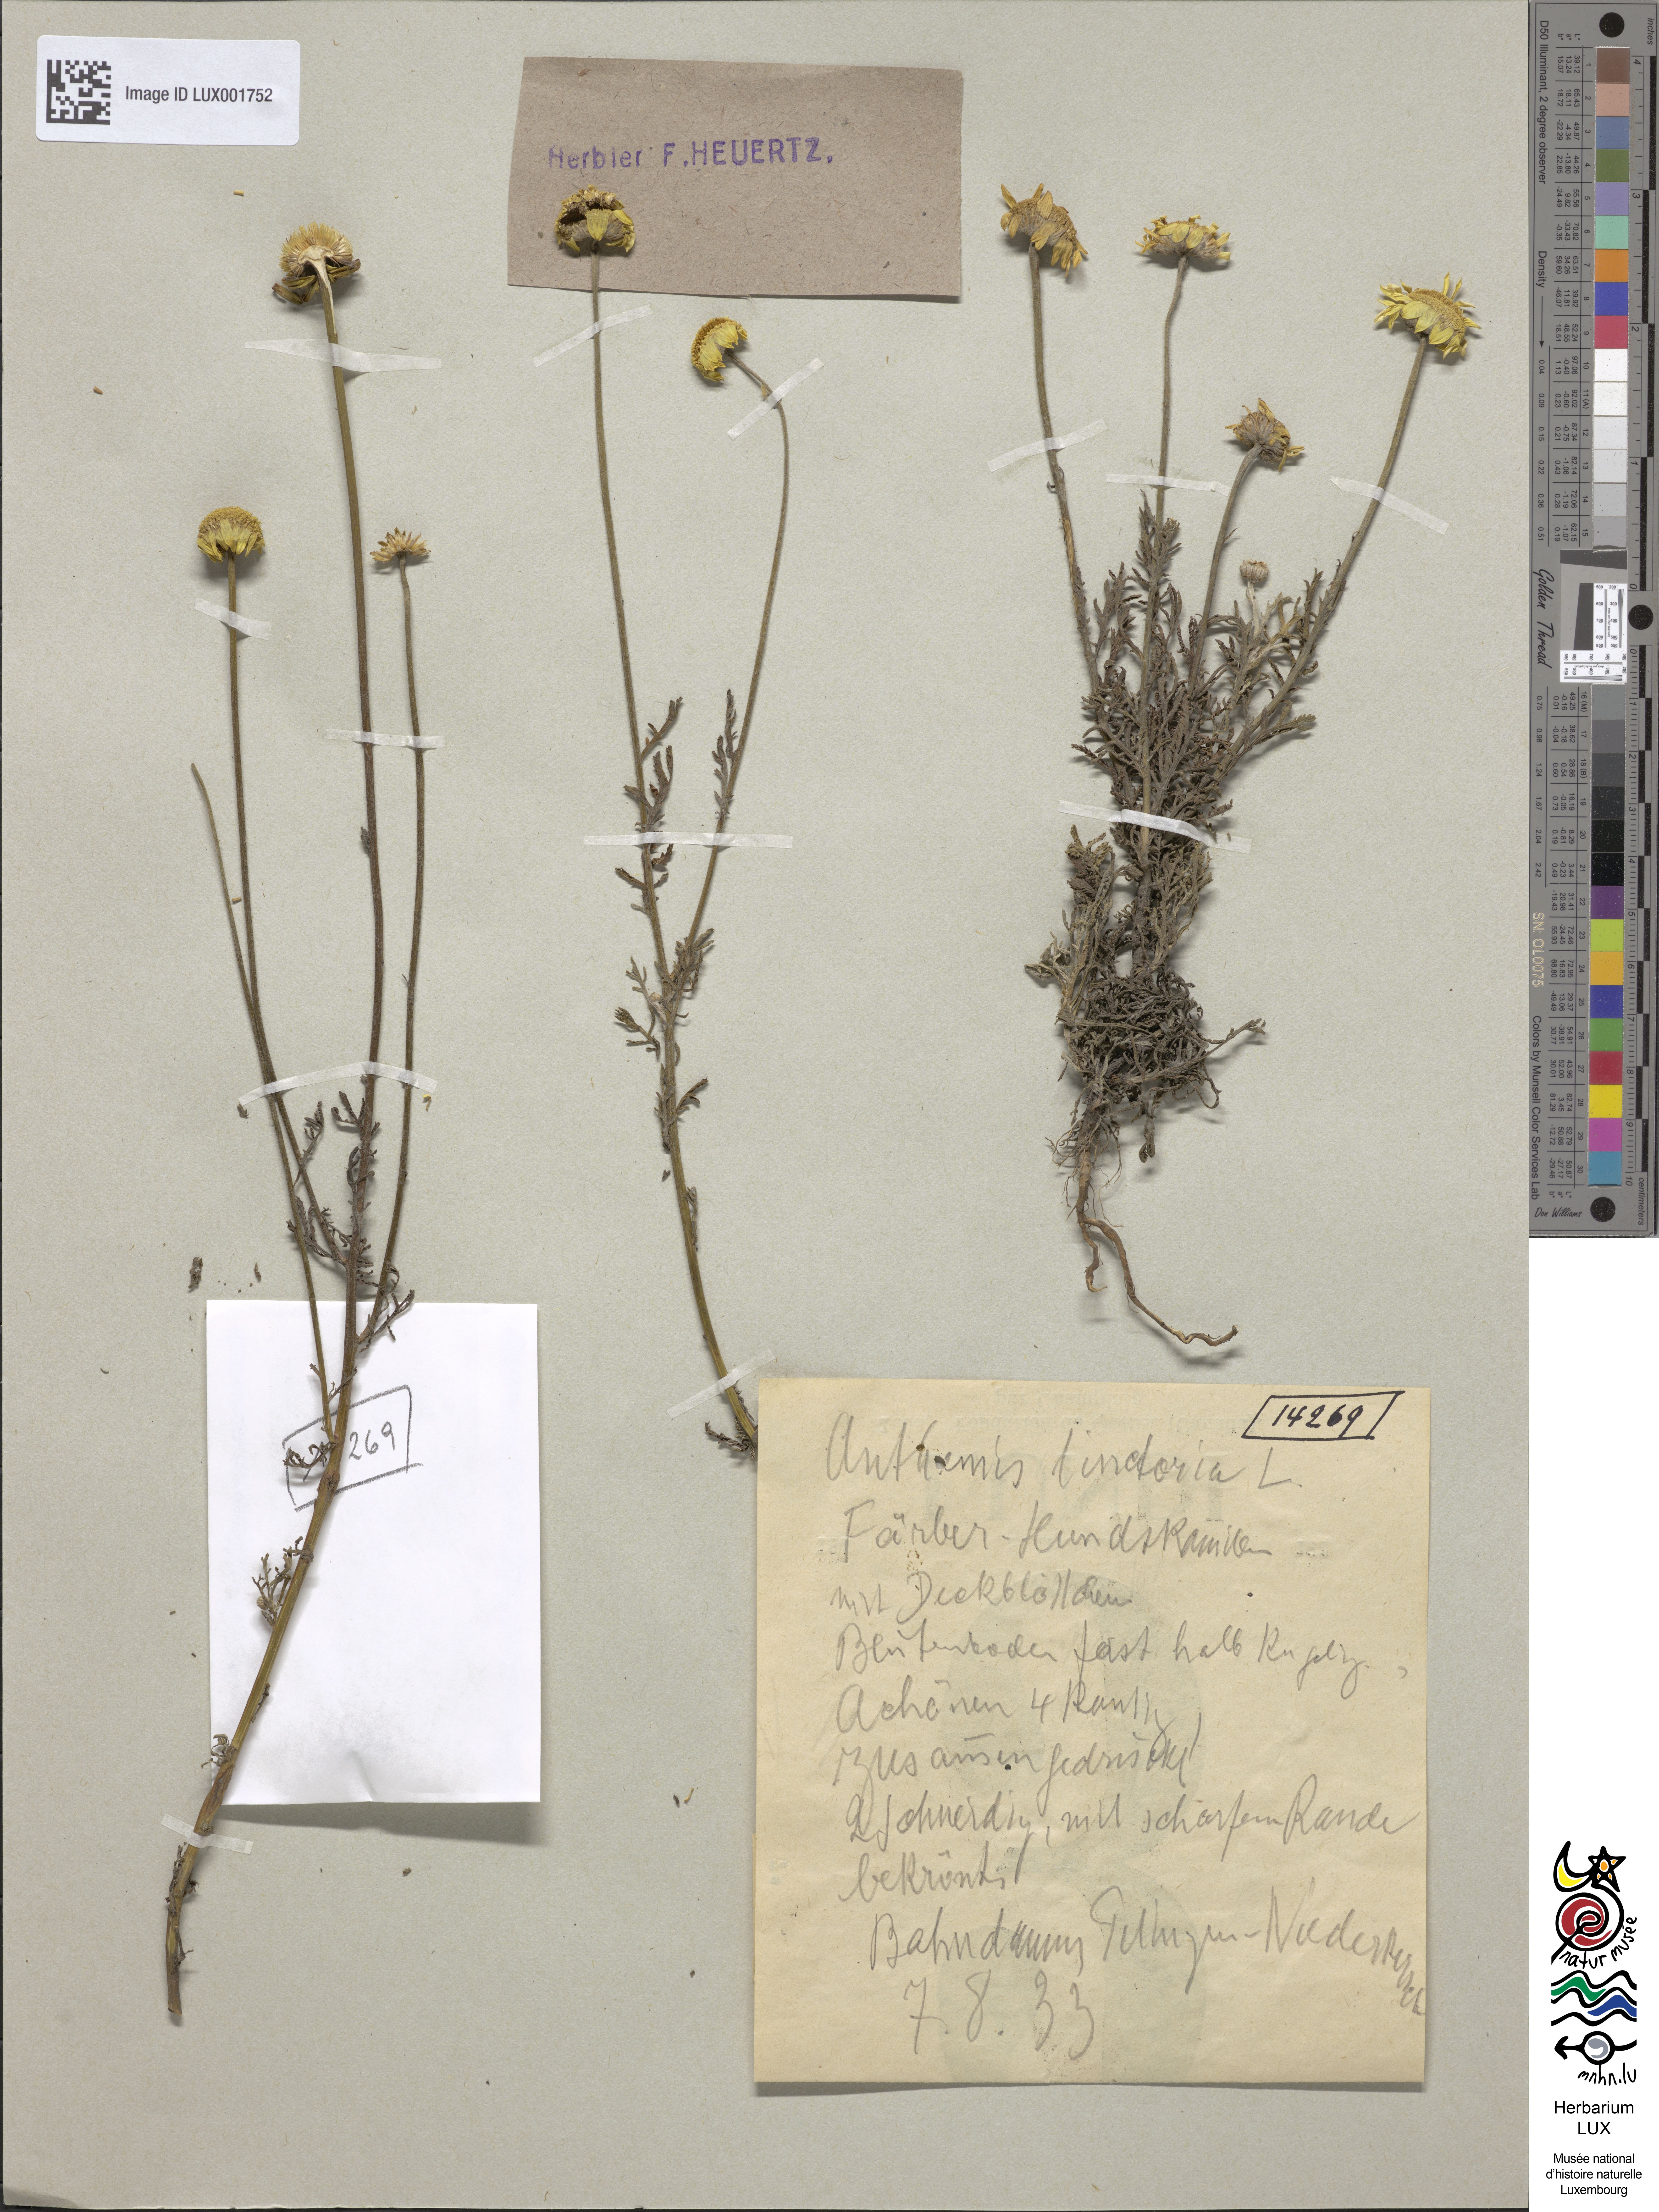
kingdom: Plantae
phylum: Tracheophyta
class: Magnoliopsida
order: Asterales
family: Asteraceae
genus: Cota
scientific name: Cota tinctoria
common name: Golden chamomile
